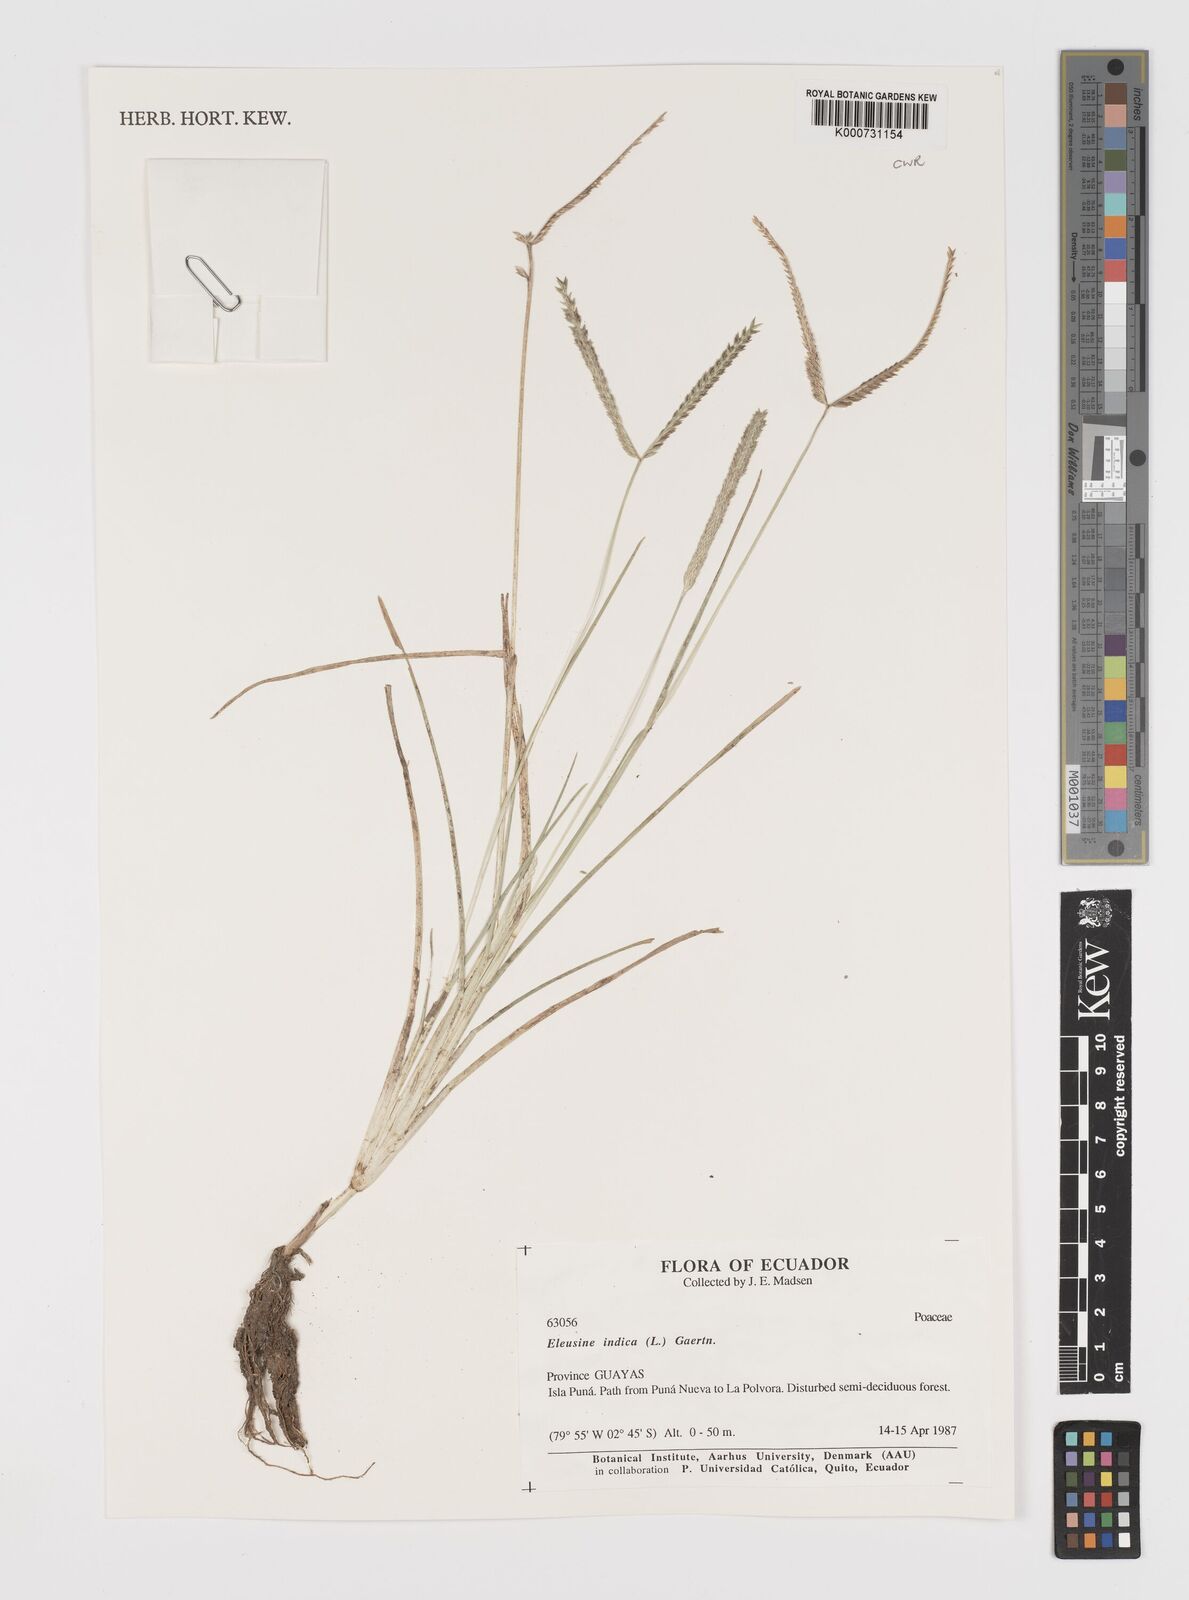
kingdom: Plantae
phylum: Tracheophyta
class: Liliopsida
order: Poales
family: Poaceae
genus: Eleusine
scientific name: Eleusine indica
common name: Yard-grass
